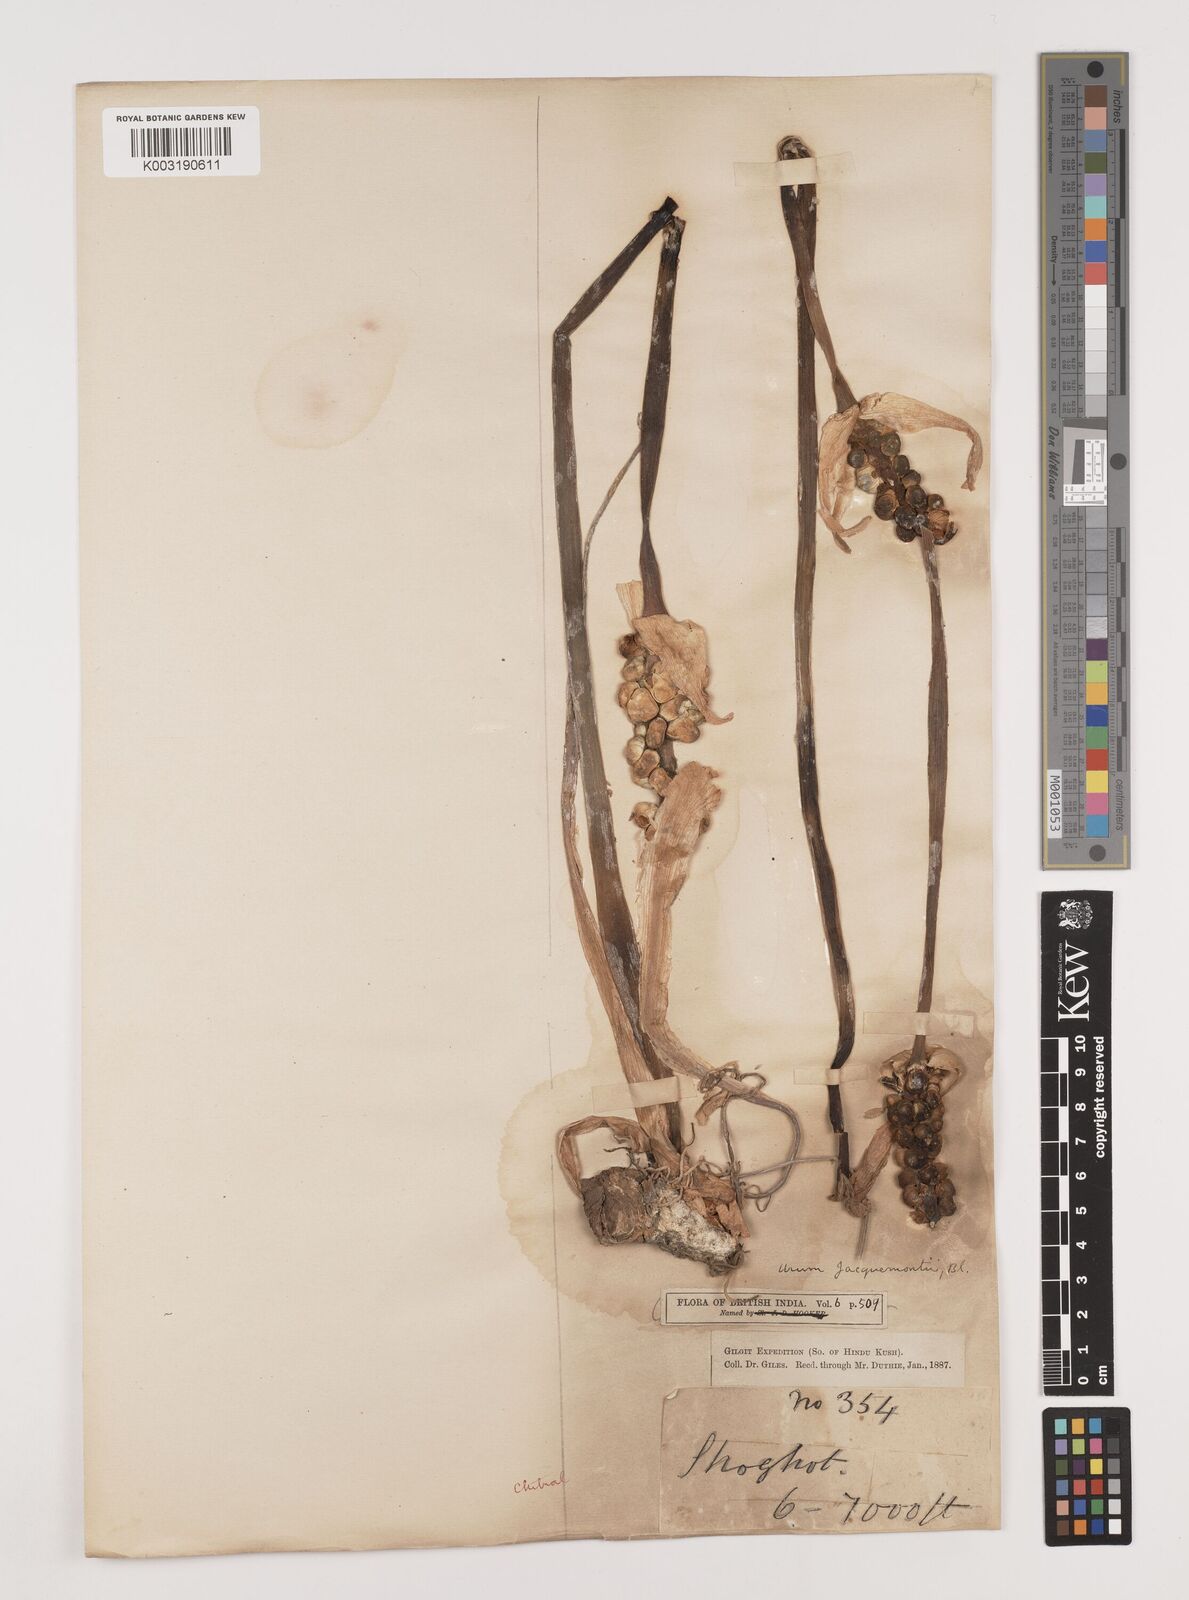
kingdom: Plantae
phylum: Tracheophyta
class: Liliopsida
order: Alismatales
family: Araceae
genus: Arum
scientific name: Arum jacquemontii
